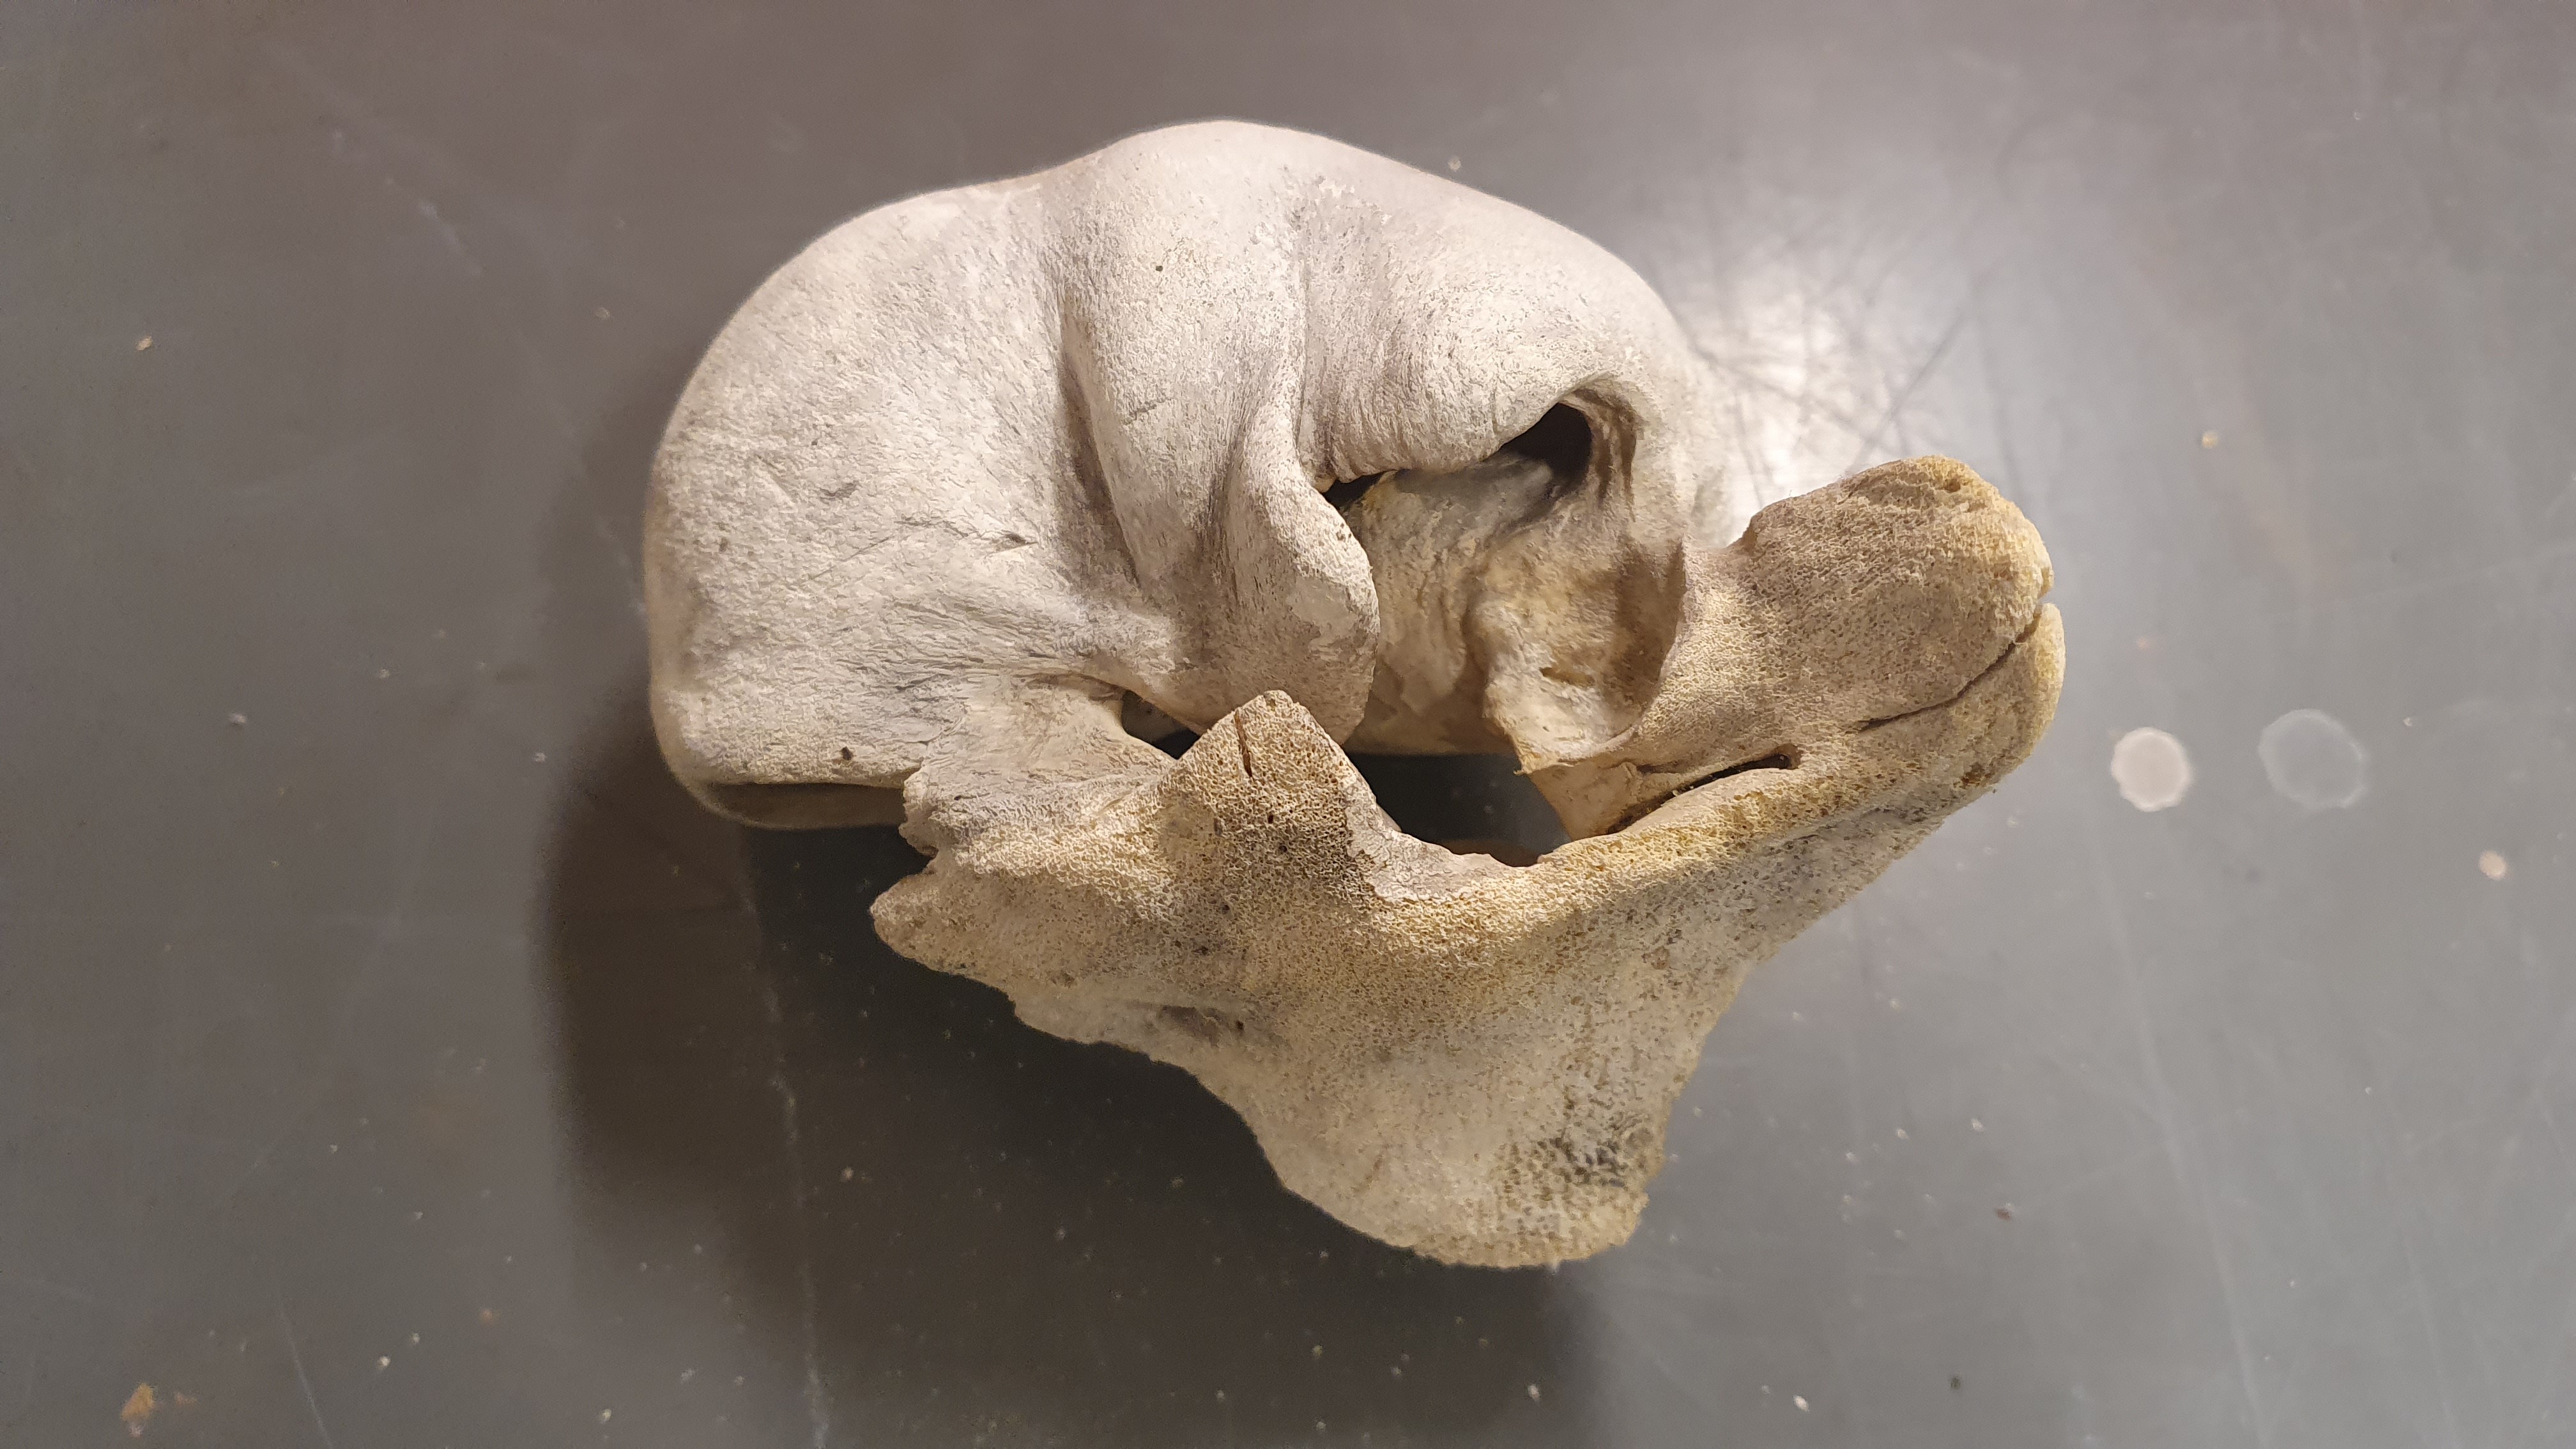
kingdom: Animalia
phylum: Chordata
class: Mammalia
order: Cetacea
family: Balaenopteridae
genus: Balaenoptera
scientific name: Balaenoptera musculus
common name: Blue whale
